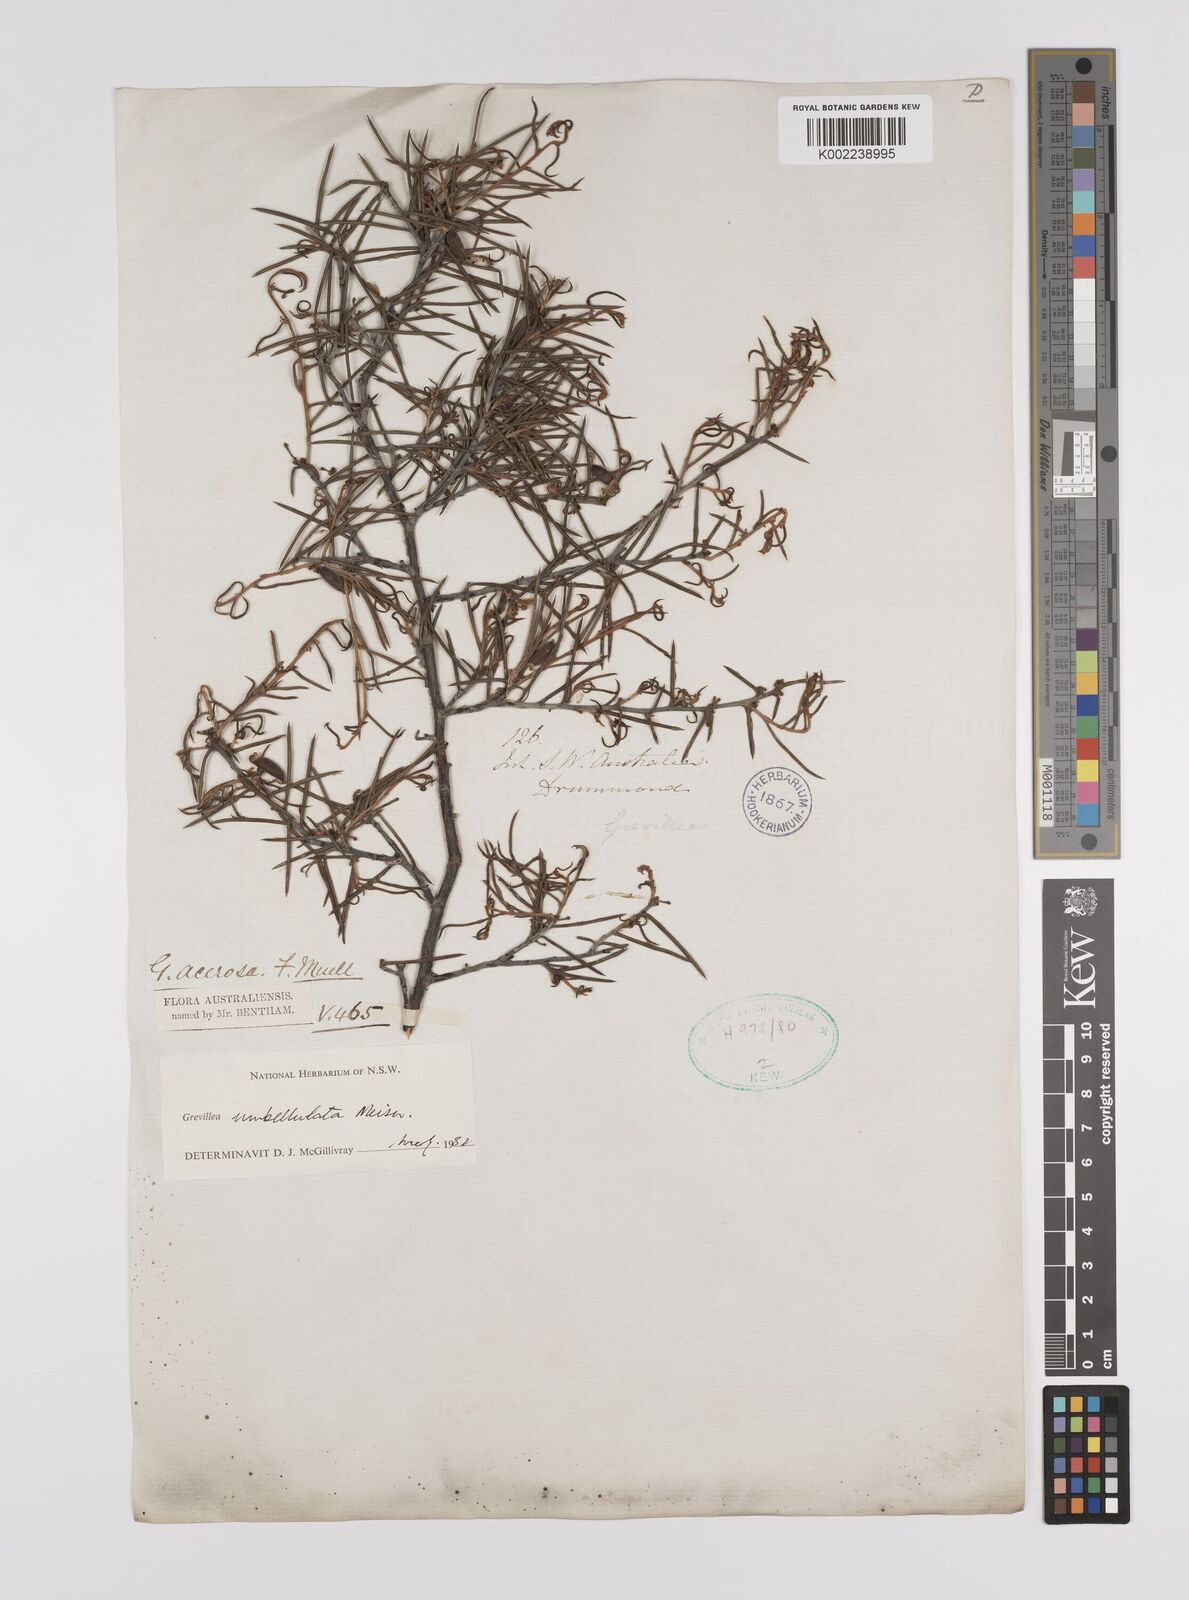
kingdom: Plantae
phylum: Tracheophyta
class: Magnoliopsida
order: Proteales
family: Proteaceae
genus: Grevillea
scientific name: Grevillea umbellulata
